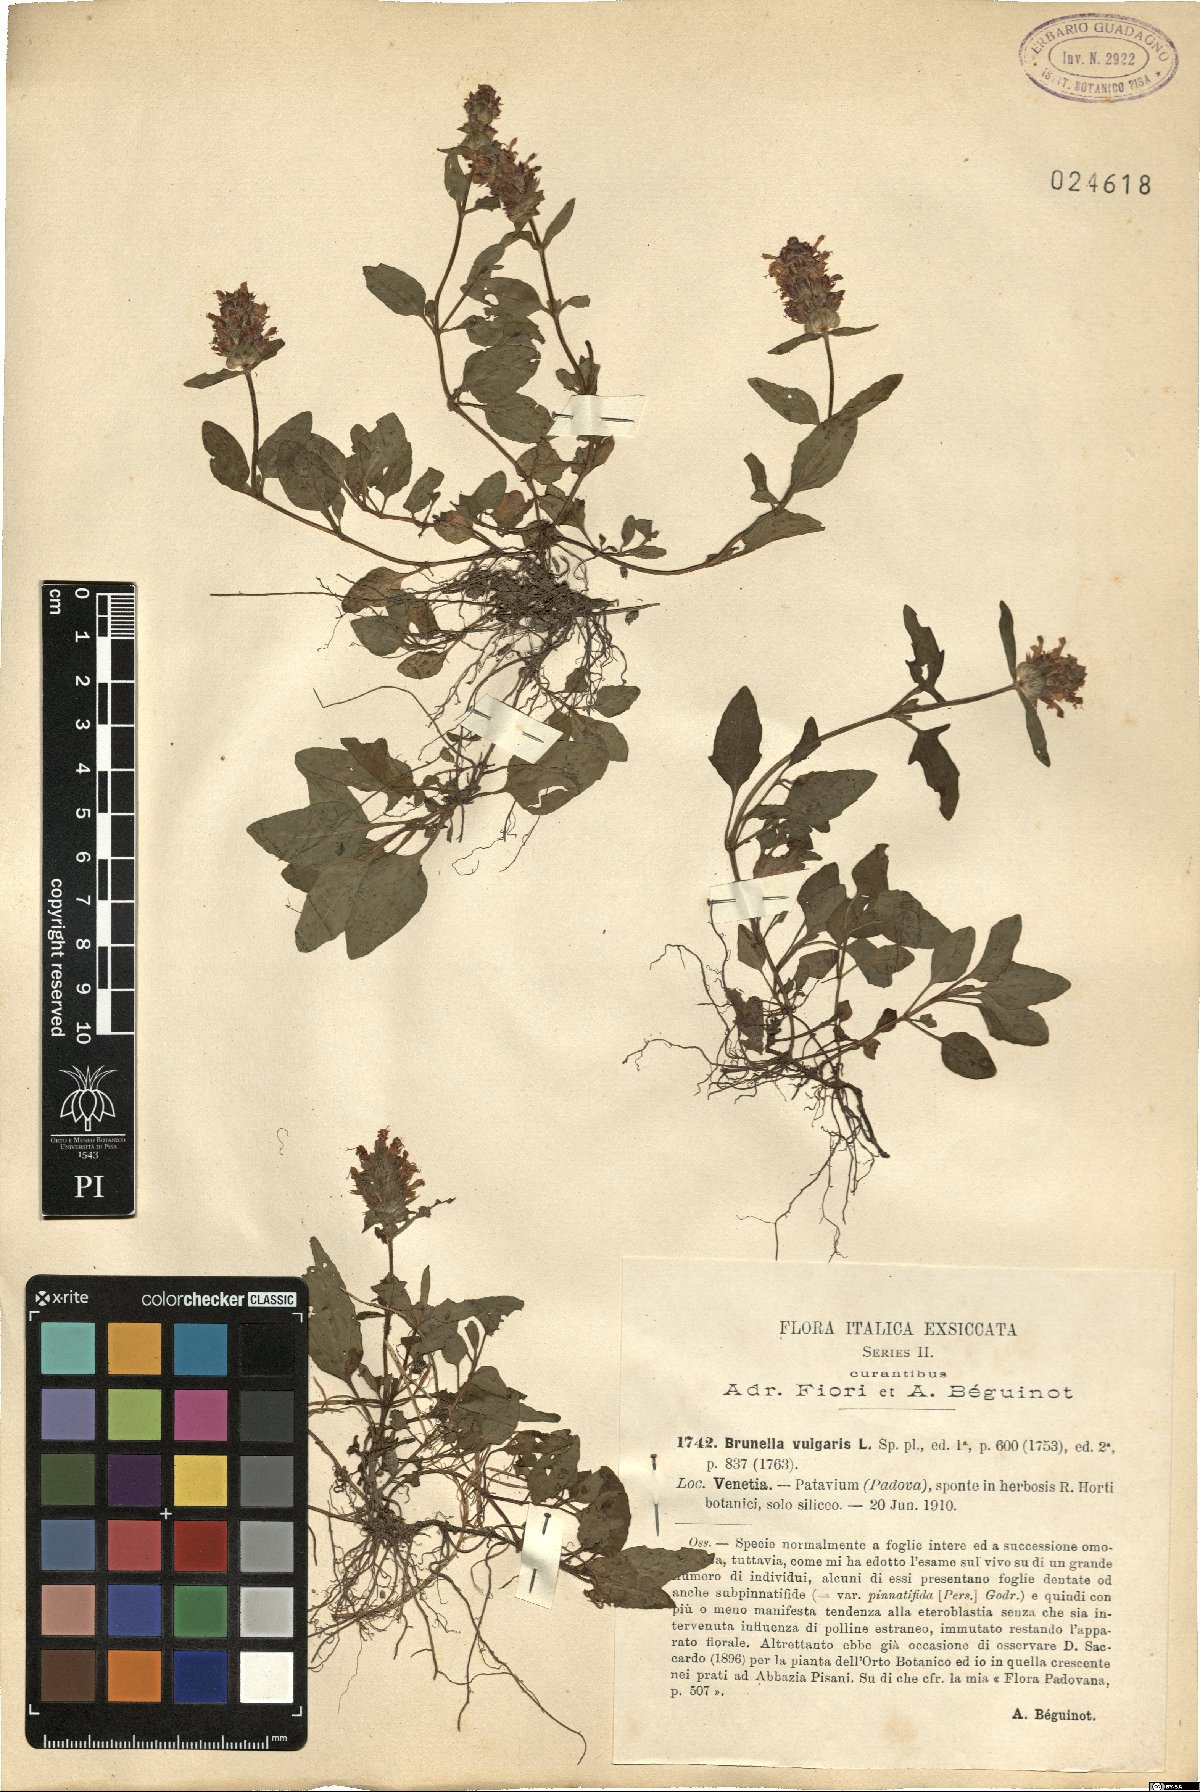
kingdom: Plantae
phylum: Tracheophyta
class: Magnoliopsida
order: Lamiales
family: Lamiaceae
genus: Prunella
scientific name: Prunella vulgaris
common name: Heal-all
